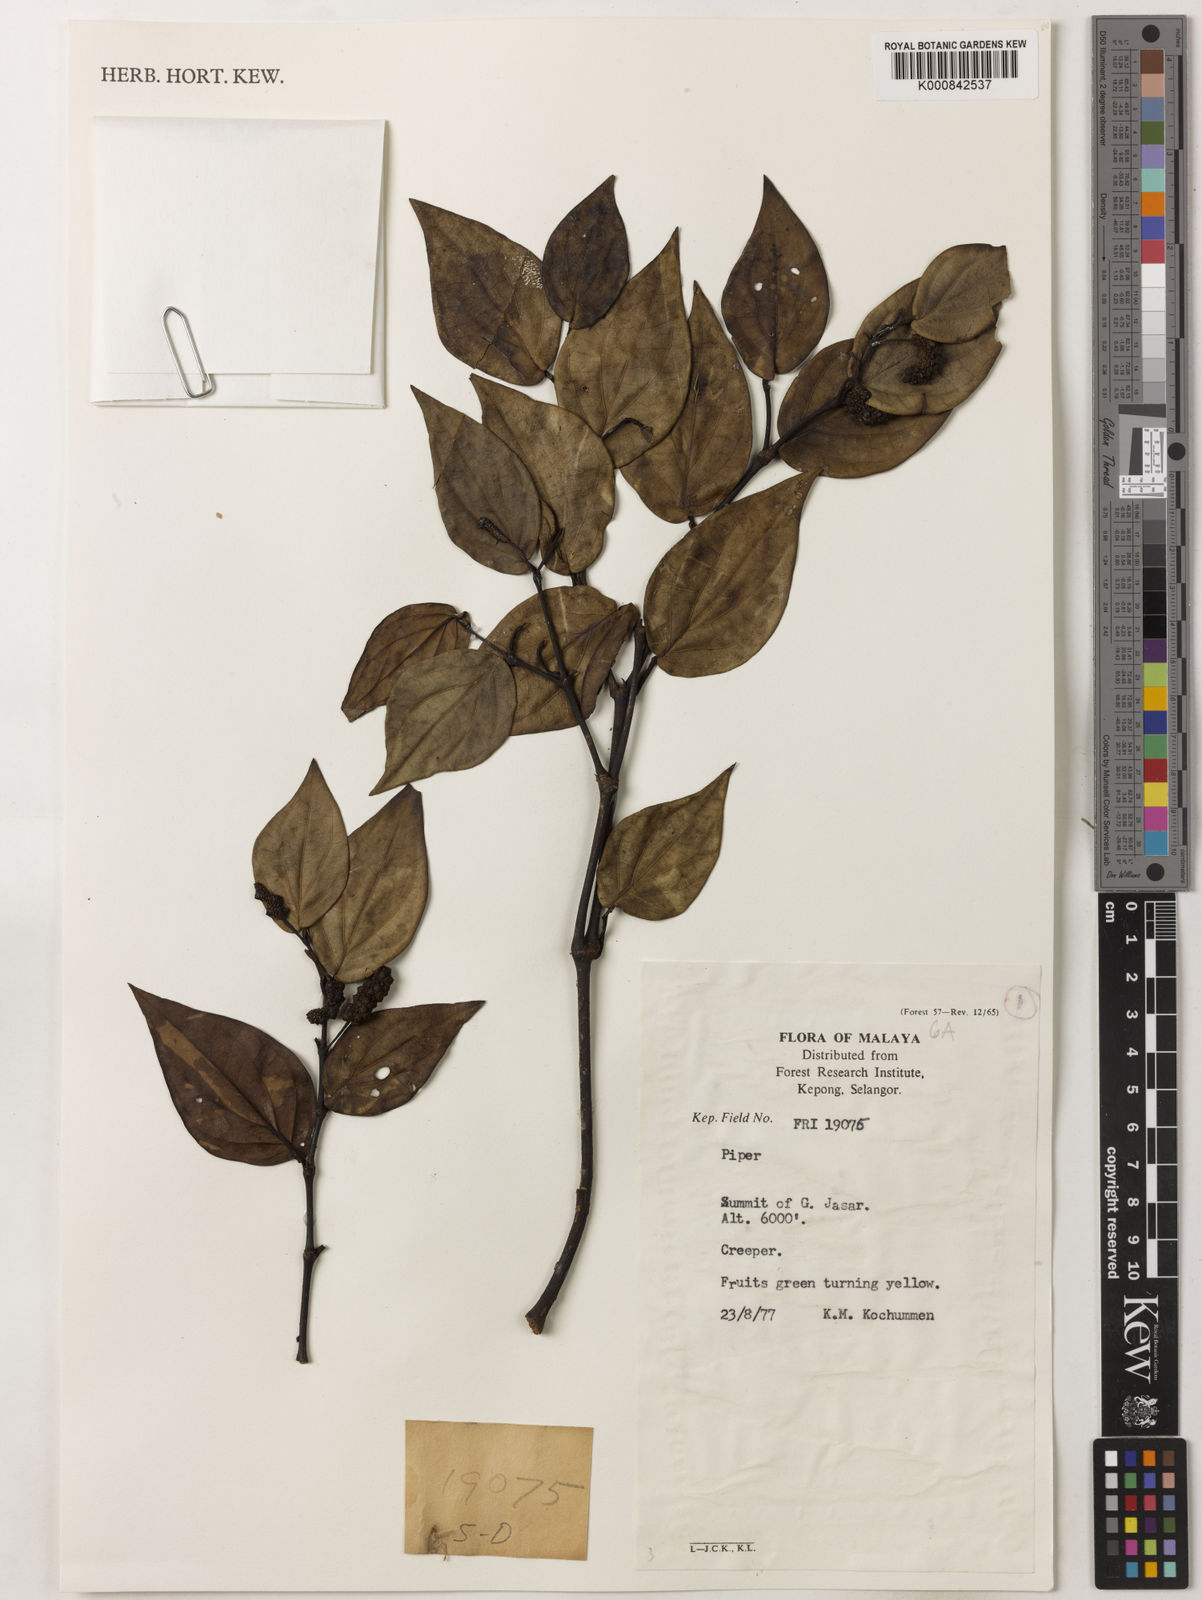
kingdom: Plantae
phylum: Tracheophyta
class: Magnoliopsida
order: Piperales
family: Piperaceae
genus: Piper
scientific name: Piper
